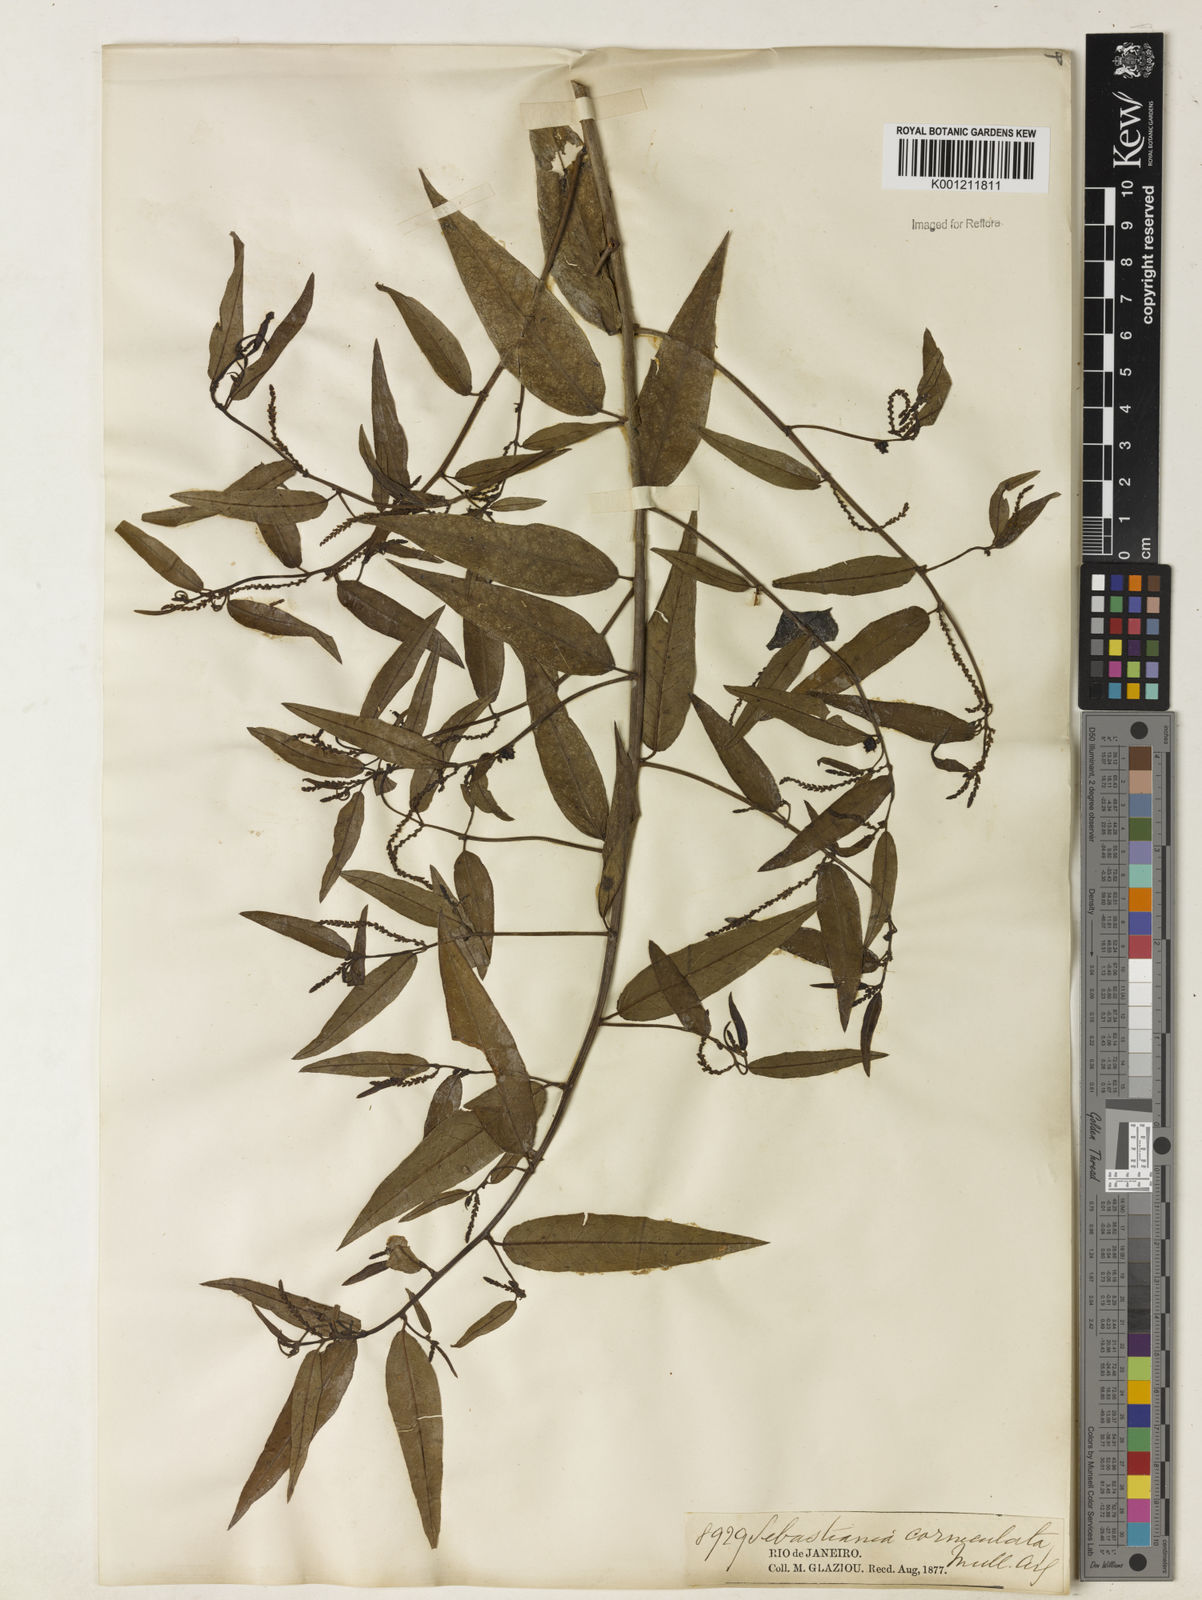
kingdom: Plantae
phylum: Tracheophyta
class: Magnoliopsida
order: Malpighiales
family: Euphorbiaceae
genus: Microstachys
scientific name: Microstachys hispida
